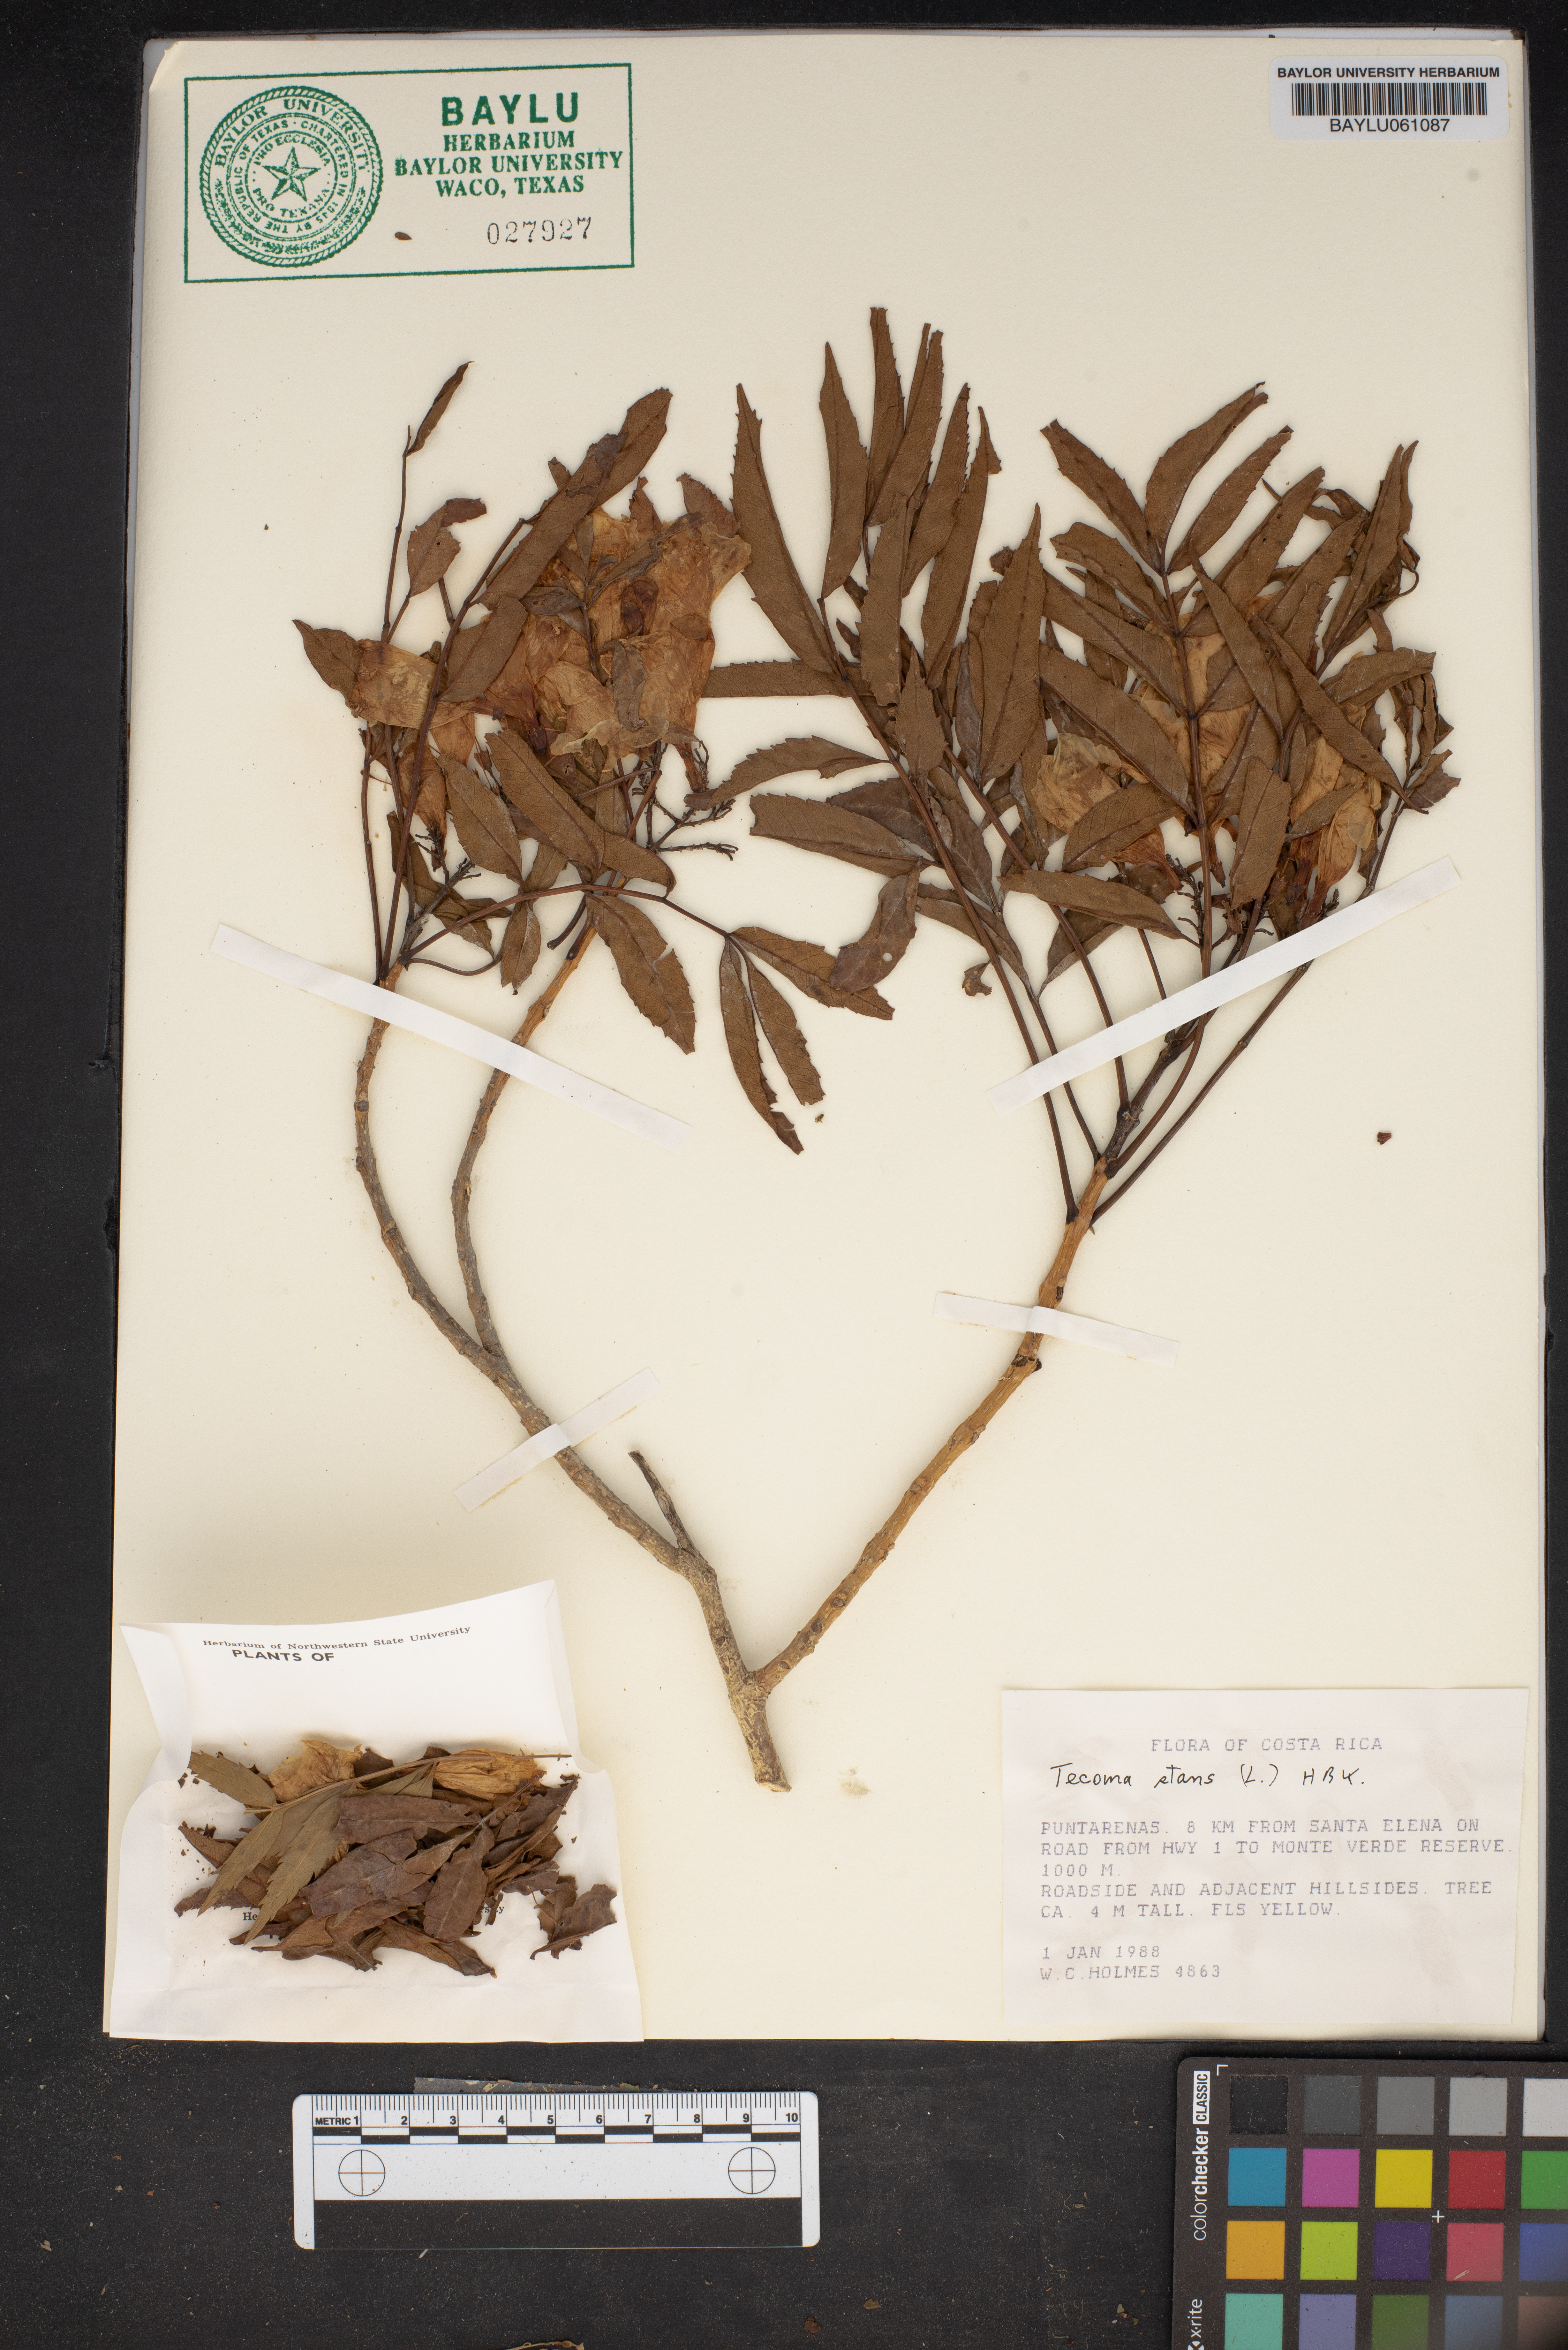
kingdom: Plantae
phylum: Tracheophyta
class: Magnoliopsida
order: Lamiales
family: Bignoniaceae
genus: Tecoma
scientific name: Tecoma stans
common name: Yellow trumpetbush
